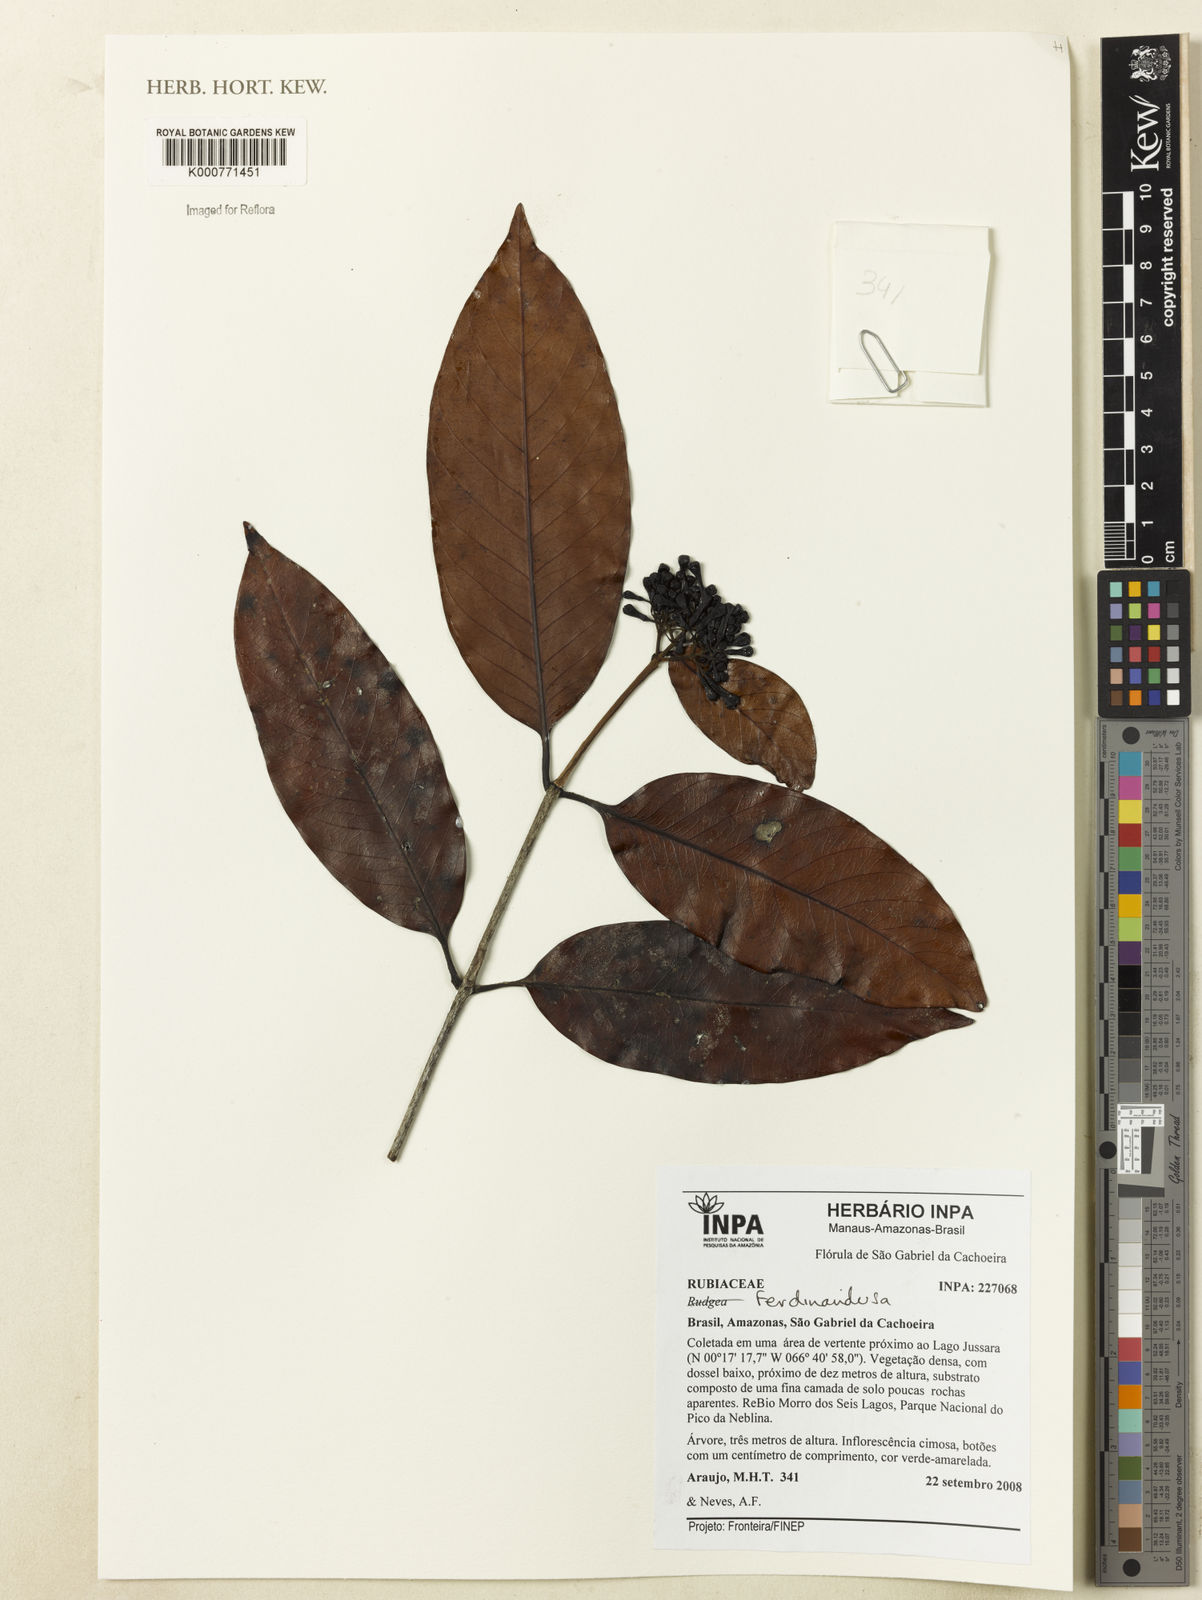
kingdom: Plantae
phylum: Tracheophyta
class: Magnoliopsida
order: Gentianales
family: Rubiaceae
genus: Ferdinandusa
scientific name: Ferdinandusa
